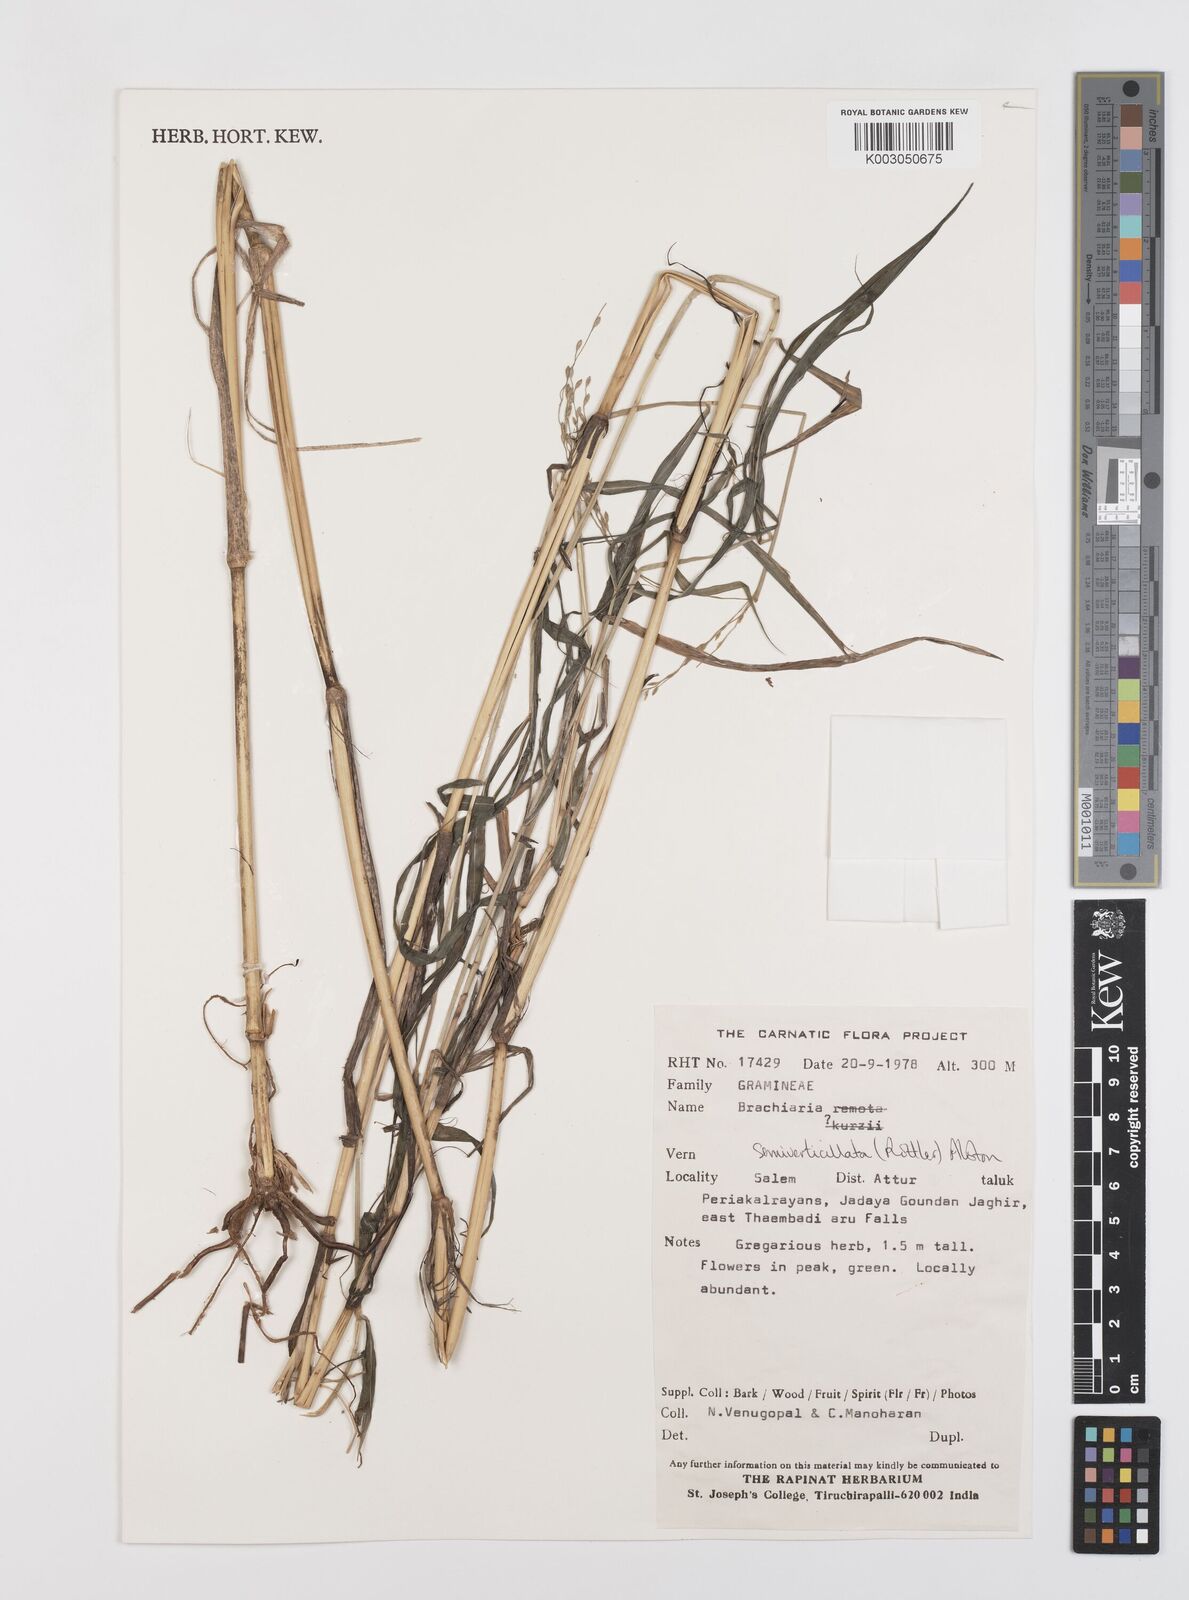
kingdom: Plantae
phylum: Tracheophyta
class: Liliopsida
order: Poales
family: Poaceae
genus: Urochloa
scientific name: Urochloa Brachiaria semiverticillata
